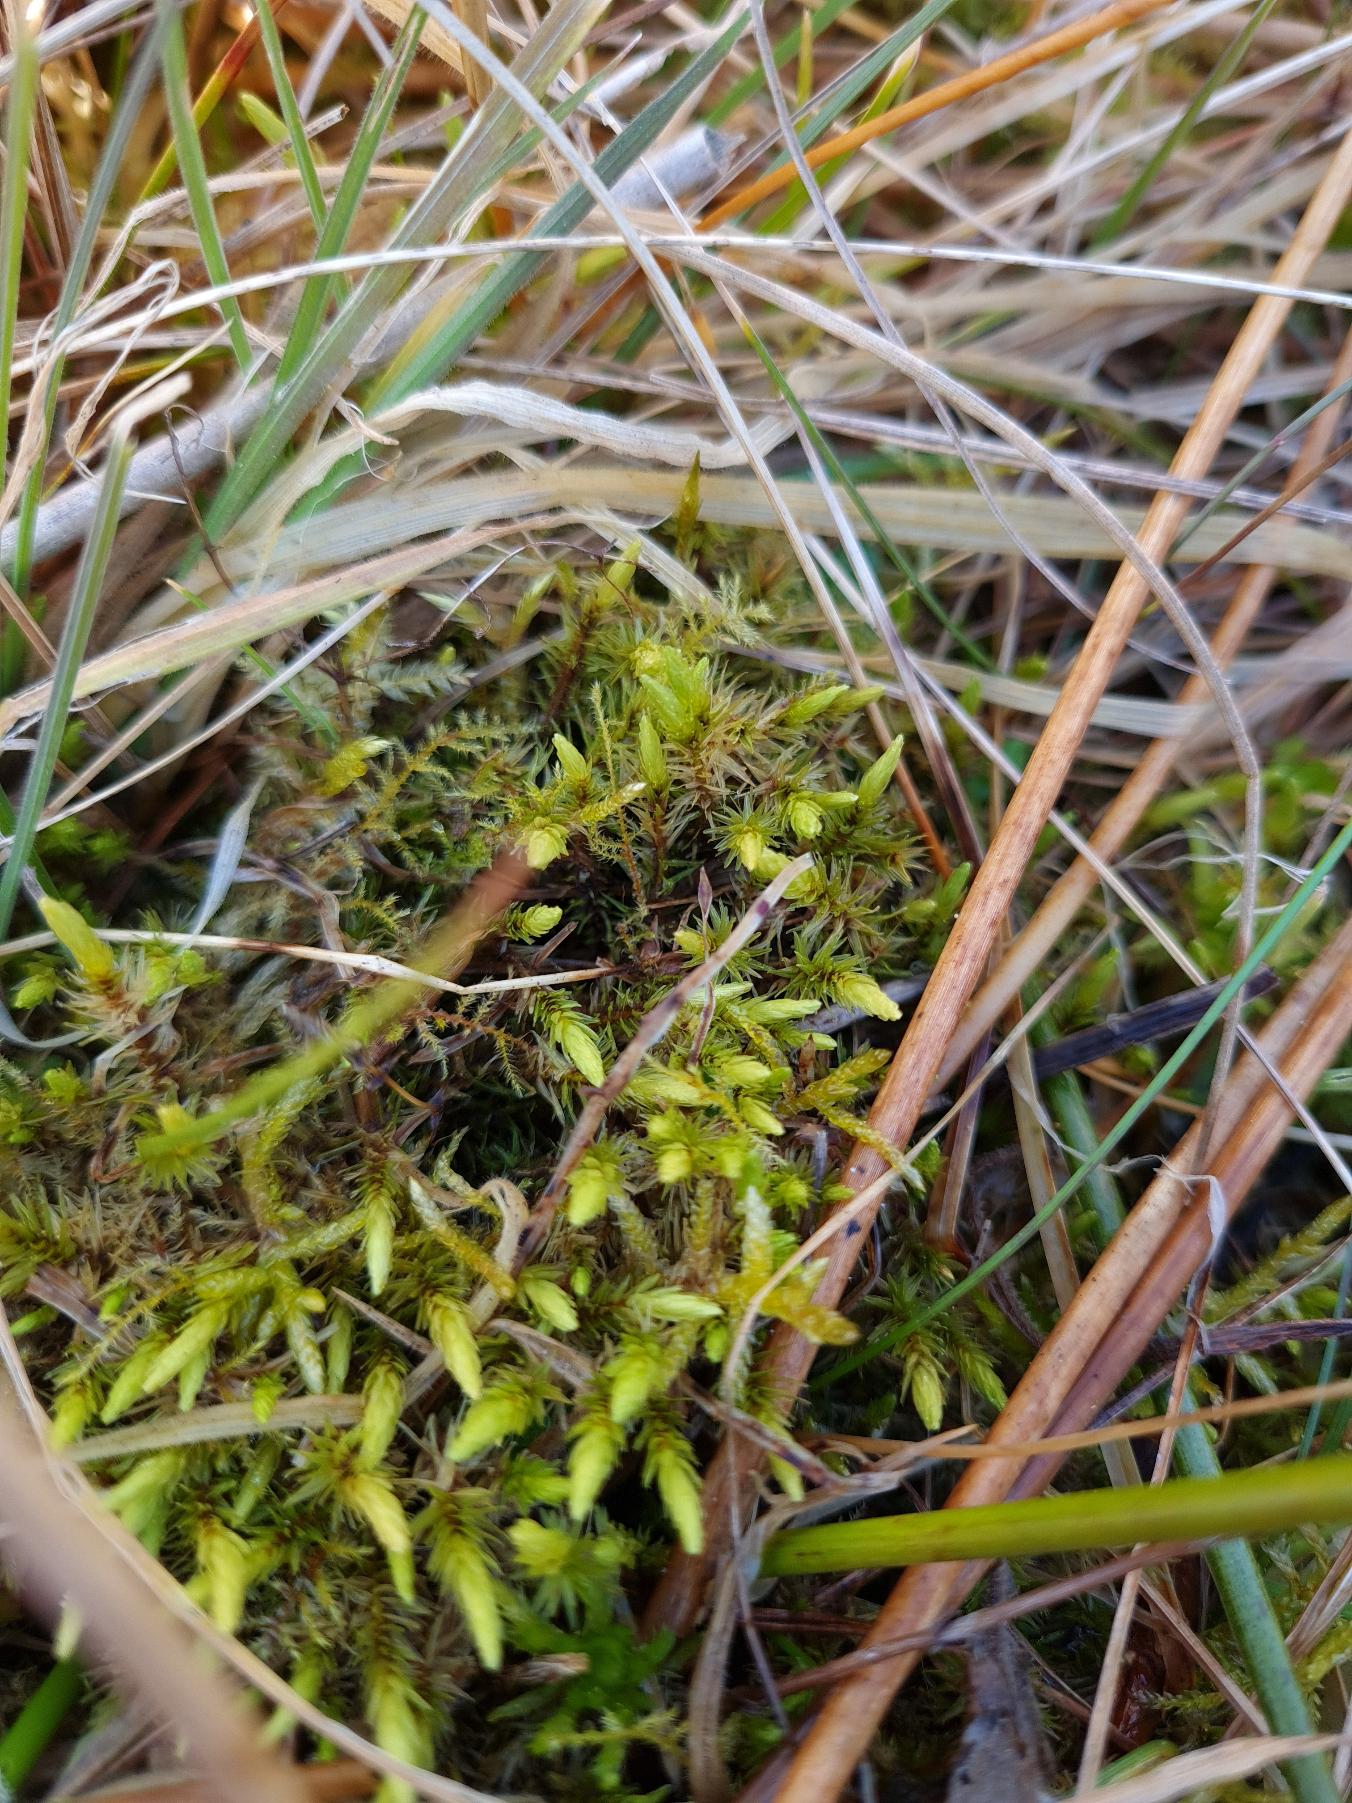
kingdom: Plantae
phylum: Bryophyta
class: Bryopsida
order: Aulacomniales
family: Aulacomniaceae
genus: Aulacomnium
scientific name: Aulacomnium palustre
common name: Almindelig filtmos
